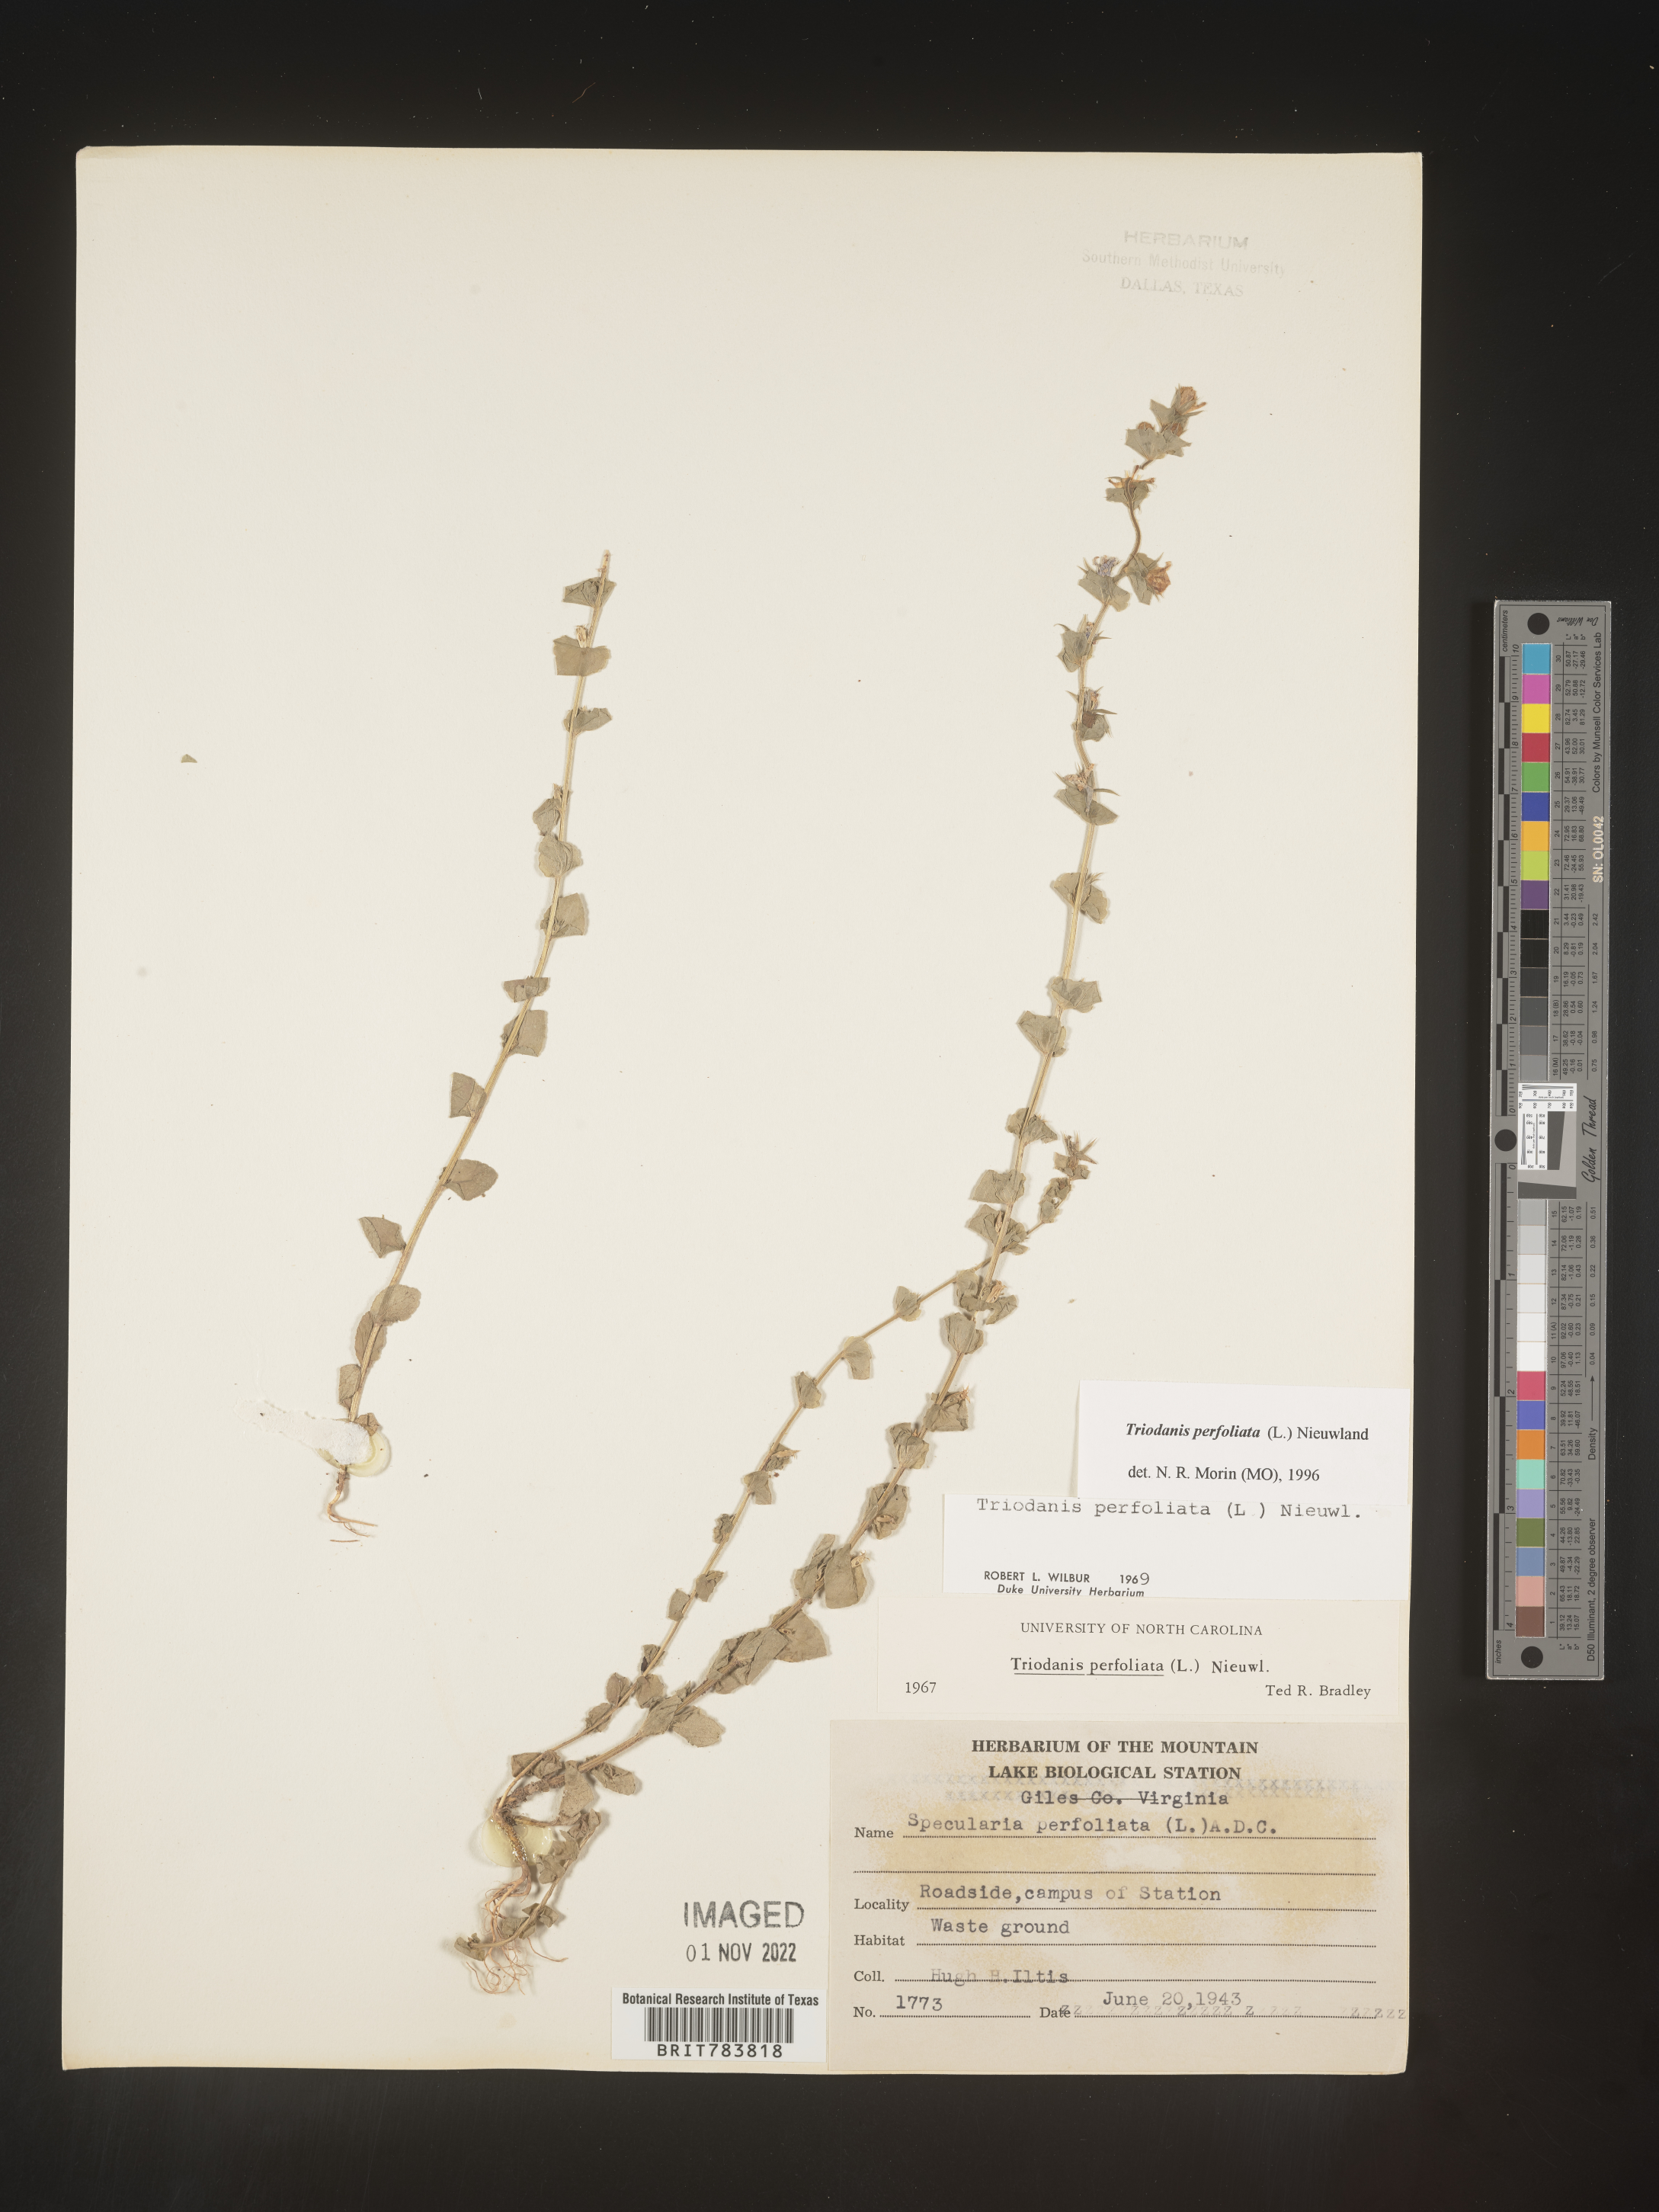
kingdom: Plantae
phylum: Tracheophyta
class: Magnoliopsida
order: Asterales
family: Campanulaceae
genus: Triodanis
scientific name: Triodanis perfoliata
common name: Clasping venus' looking-glass
